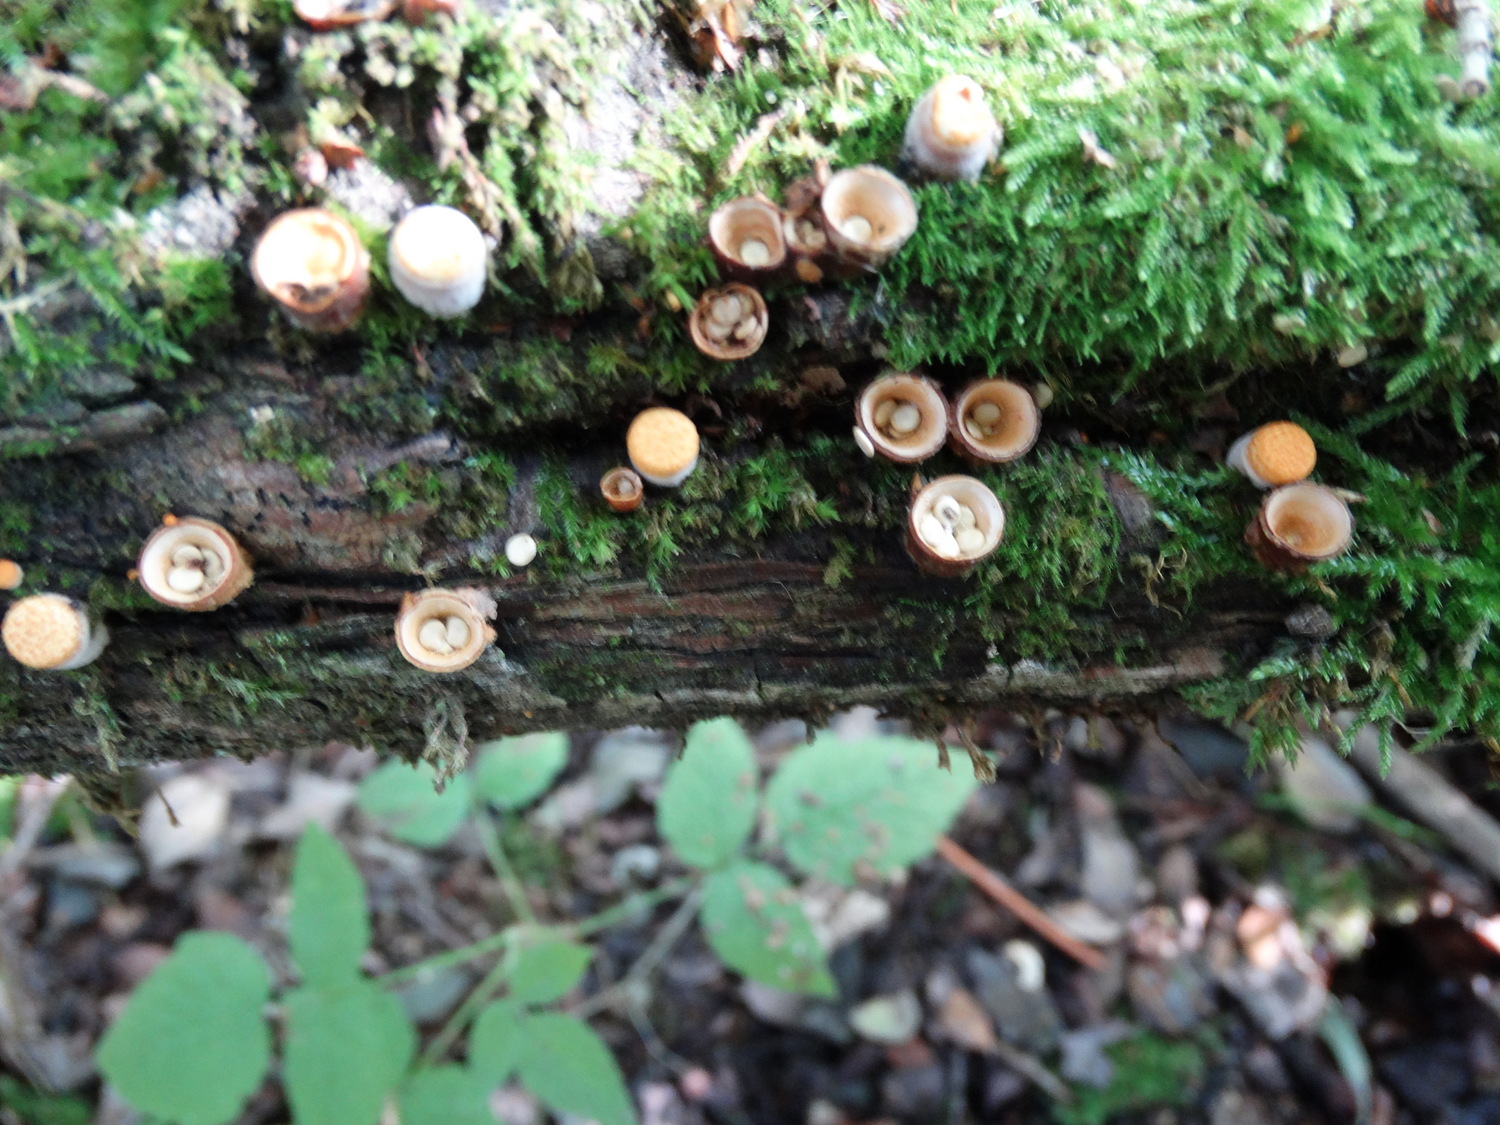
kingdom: Fungi
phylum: Basidiomycota
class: Agaricomycetes
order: Agaricales
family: Nidulariaceae
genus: Crucibulum
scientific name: Crucibulum crucibuliforme
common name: krukkesvamp
